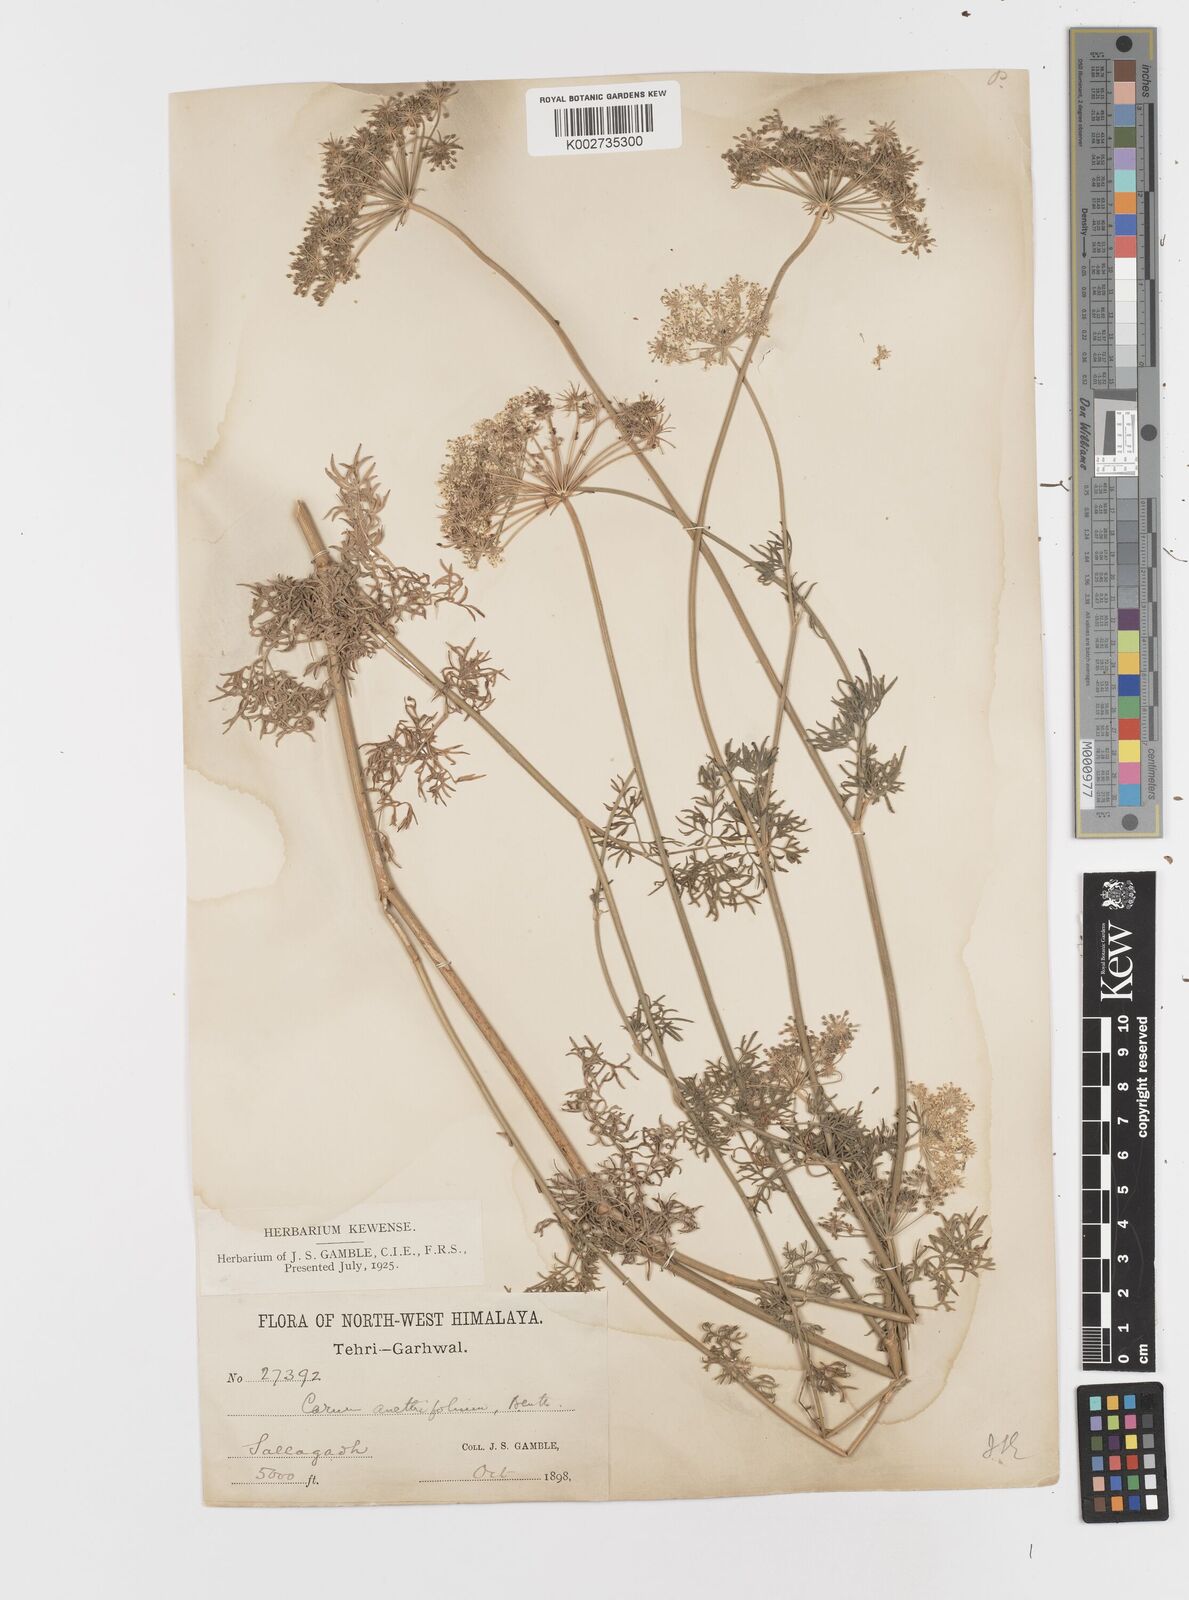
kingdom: Plantae
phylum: Tracheophyta
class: Magnoliopsida
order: Apiales
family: Apiaceae
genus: Psammogeton
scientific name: Psammogeton anethifolium
